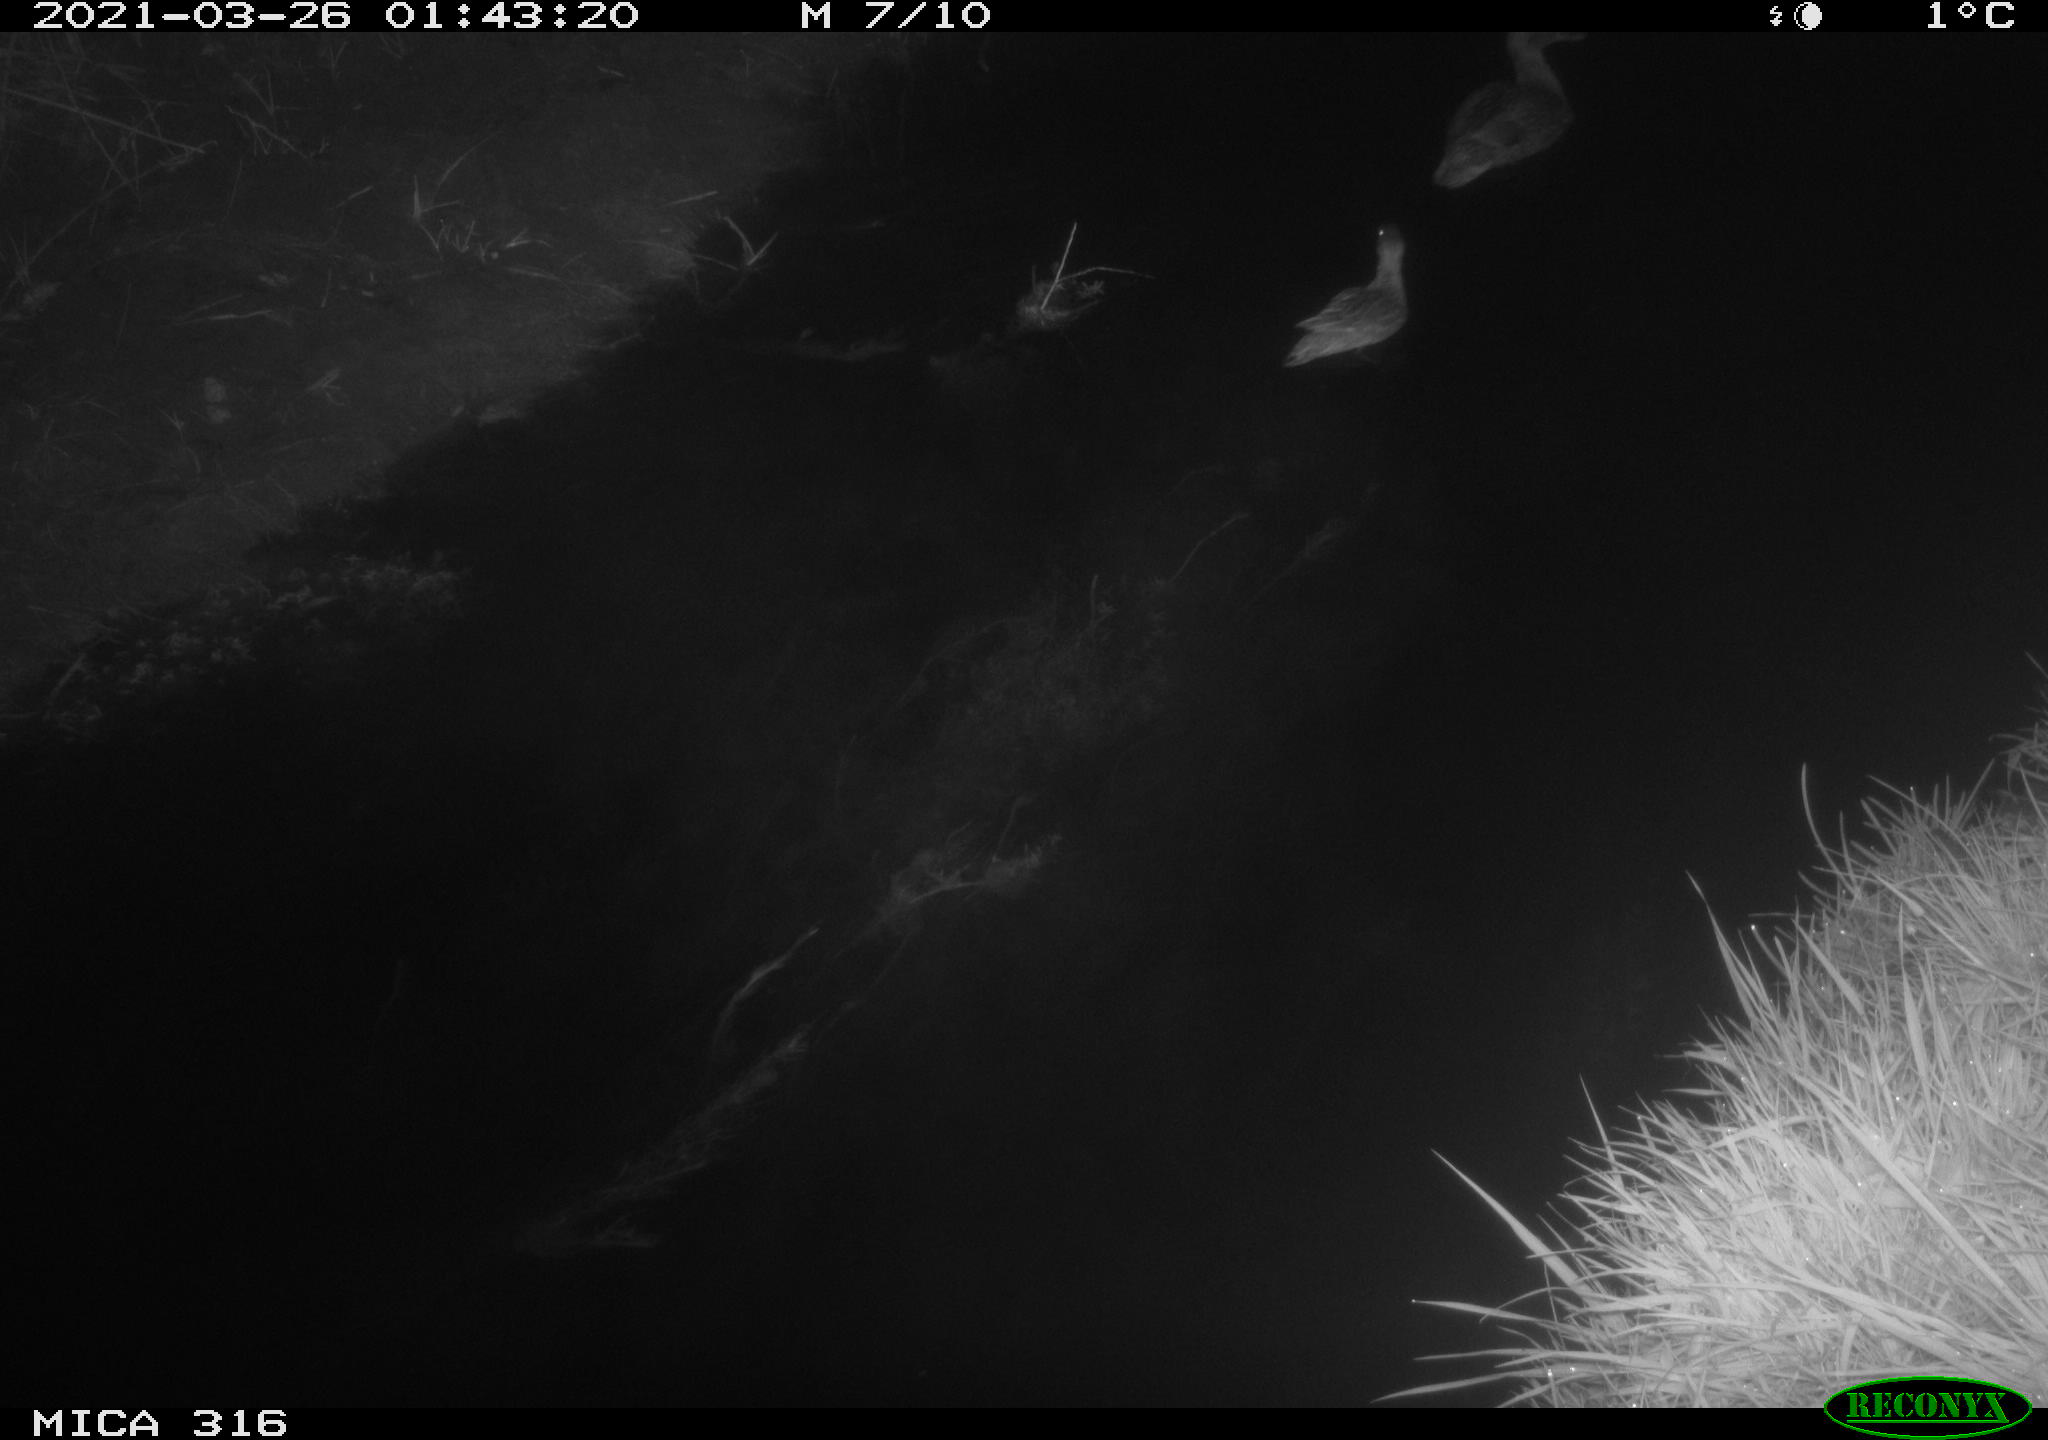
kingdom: Animalia
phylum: Chordata
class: Aves
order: Anseriformes
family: Anatidae
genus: Anas
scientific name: Anas crecca
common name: Eurasian teal
